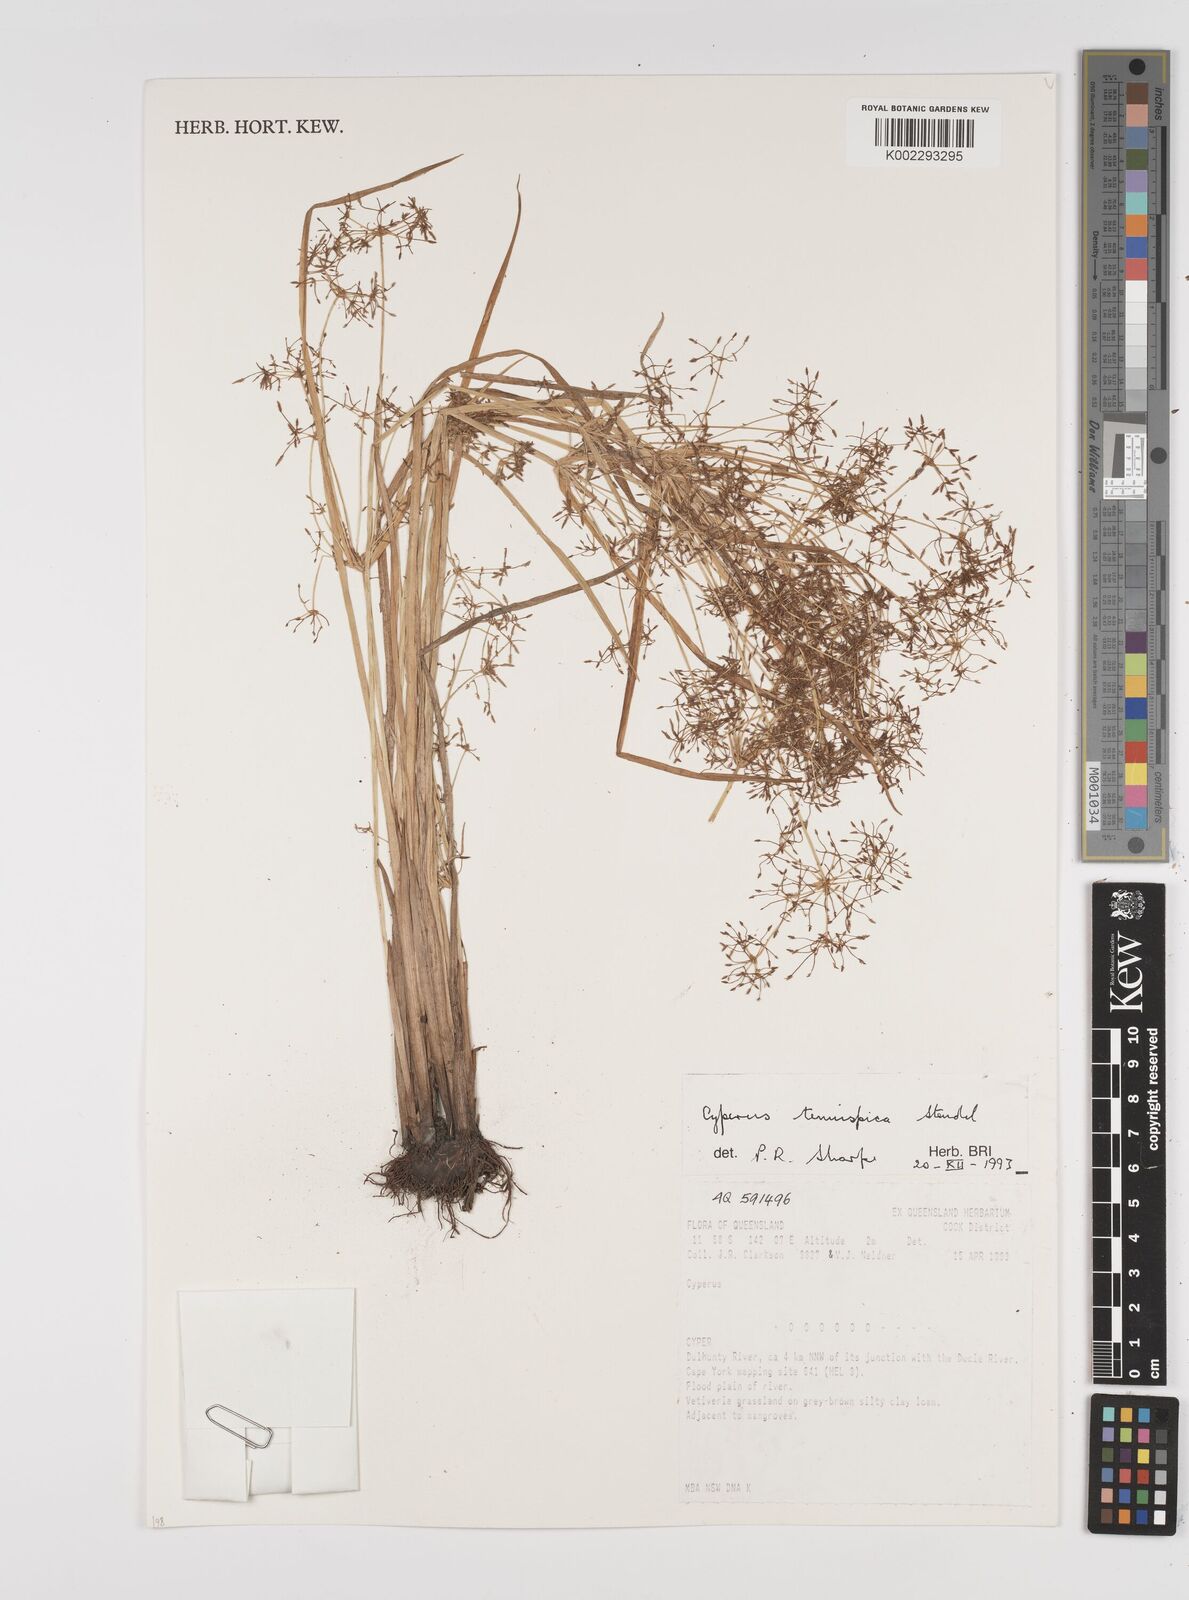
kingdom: Plantae
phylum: Tracheophyta
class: Liliopsida
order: Poales
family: Cyperaceae
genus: Cyperus
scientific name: Cyperus tenuispica
